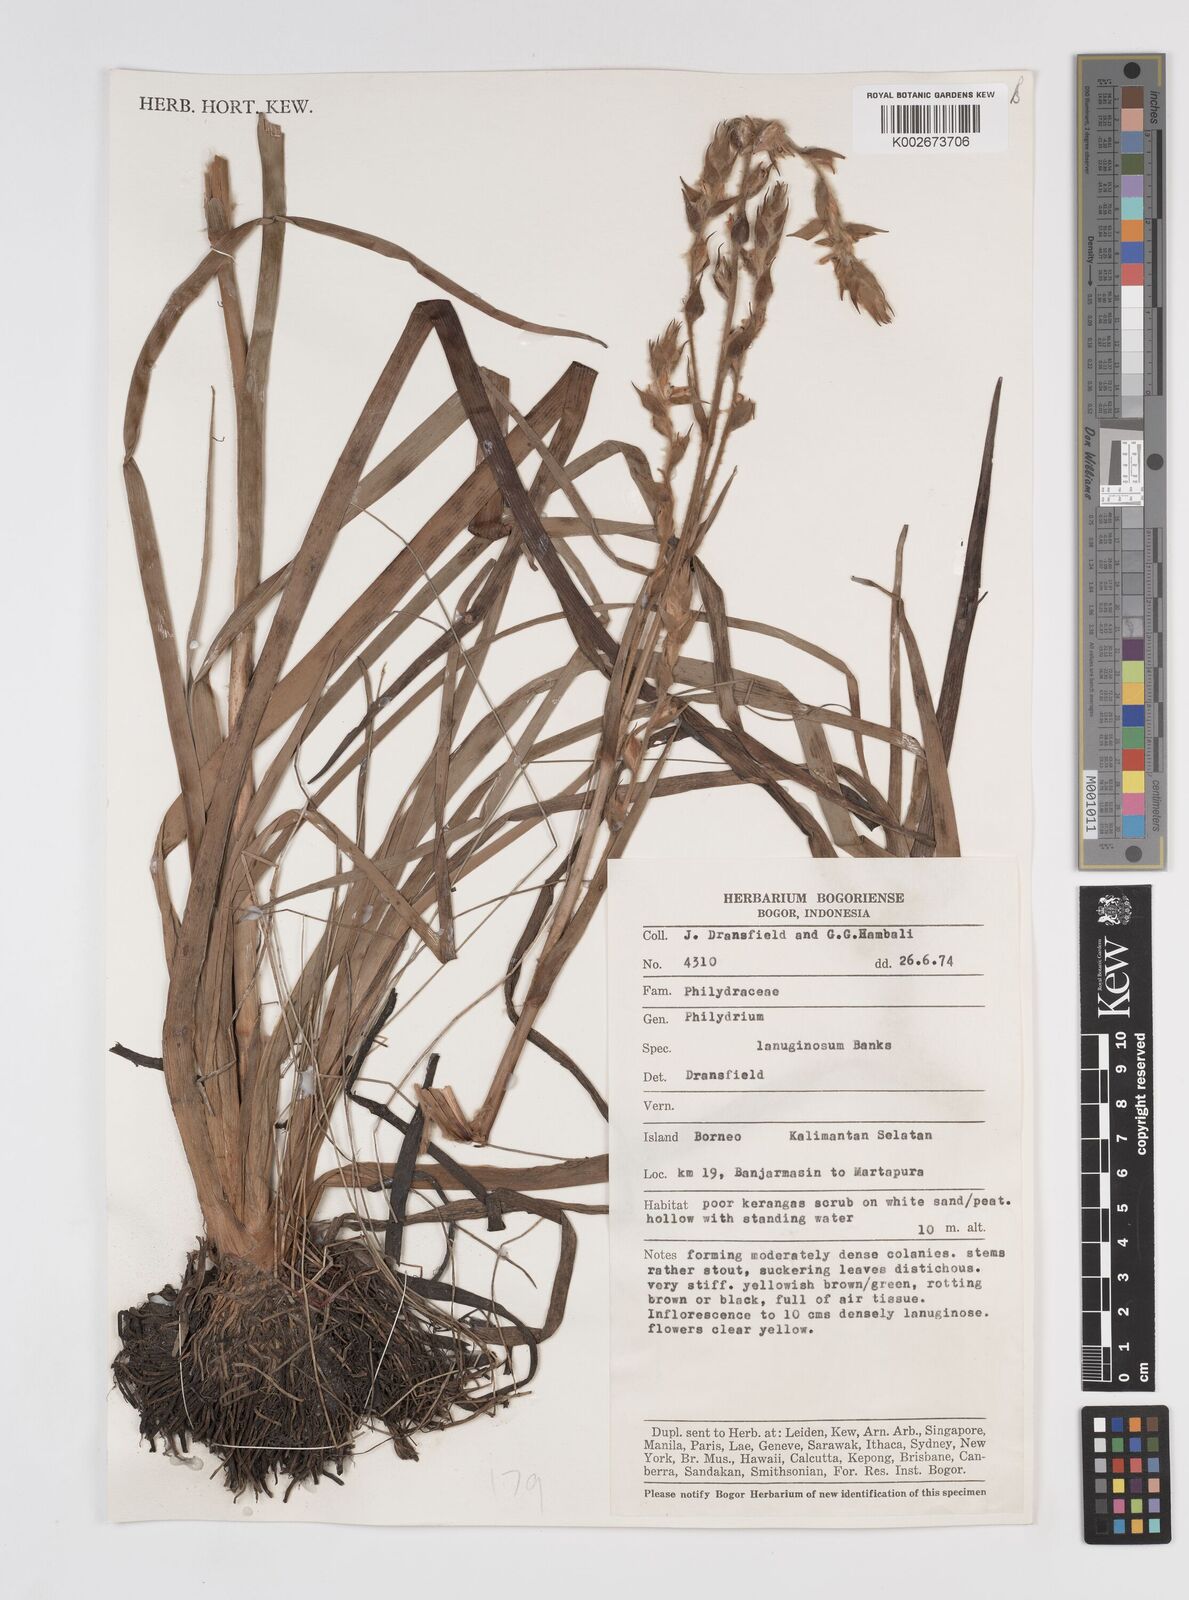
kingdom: Plantae
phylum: Tracheophyta
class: Liliopsida
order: Commelinales
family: Philydraceae
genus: Philydrum
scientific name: Philydrum lanuginosum
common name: Woolly frog's mouth
